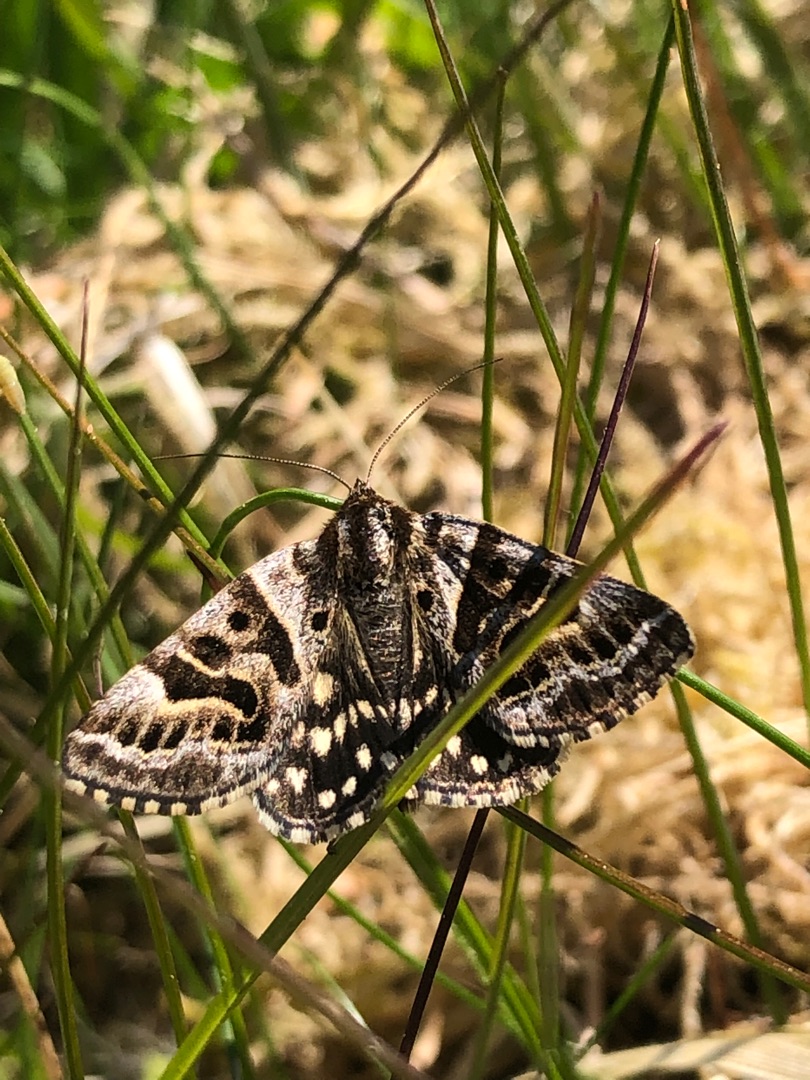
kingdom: Animalia
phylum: Arthropoda
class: Insecta
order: Lepidoptera
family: Erebidae
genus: Callistege
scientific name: Callistege mi
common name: Marmoreret kløverugle
